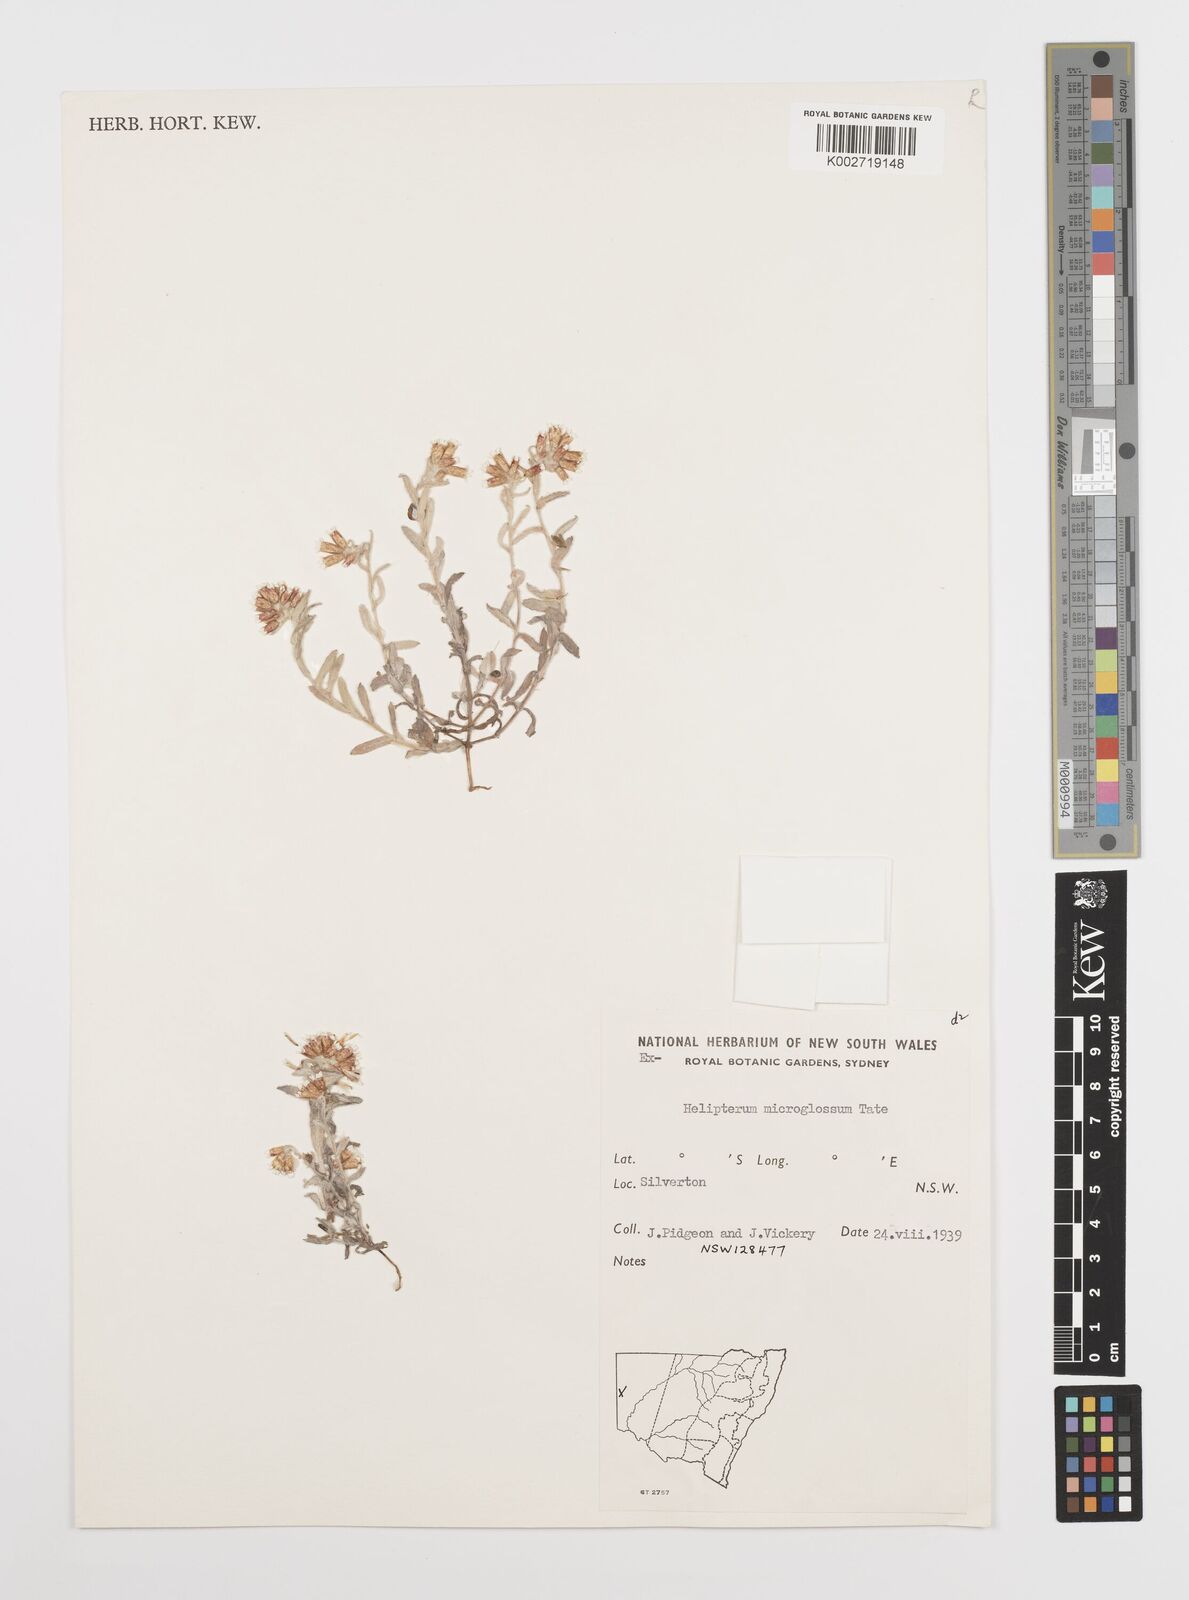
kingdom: Plantae
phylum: Tracheophyta
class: Magnoliopsida
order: Asterales
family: Asteraceae
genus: Rhodanthe
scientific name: Rhodanthe microglossa
